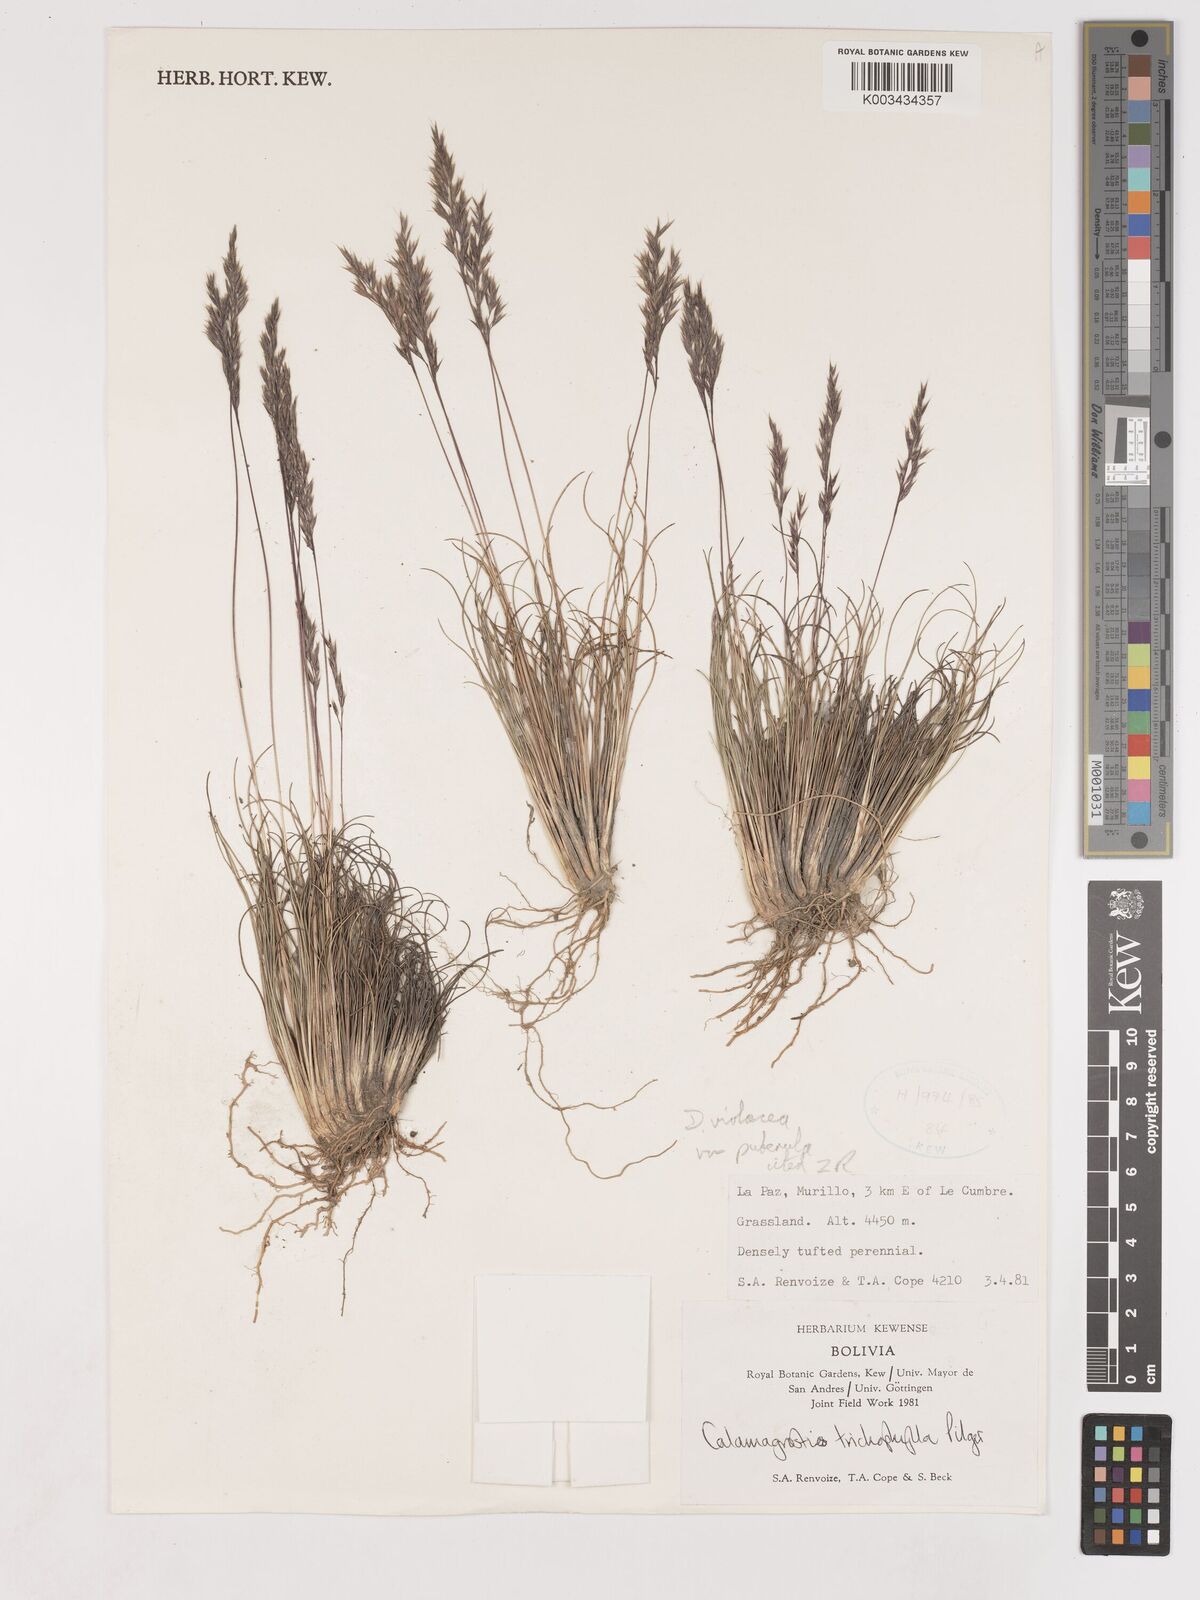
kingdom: Plantae
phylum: Tracheophyta
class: Liliopsida
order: Poales
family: Poaceae
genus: Cinnagrostis
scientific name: Cinnagrostis violacea
